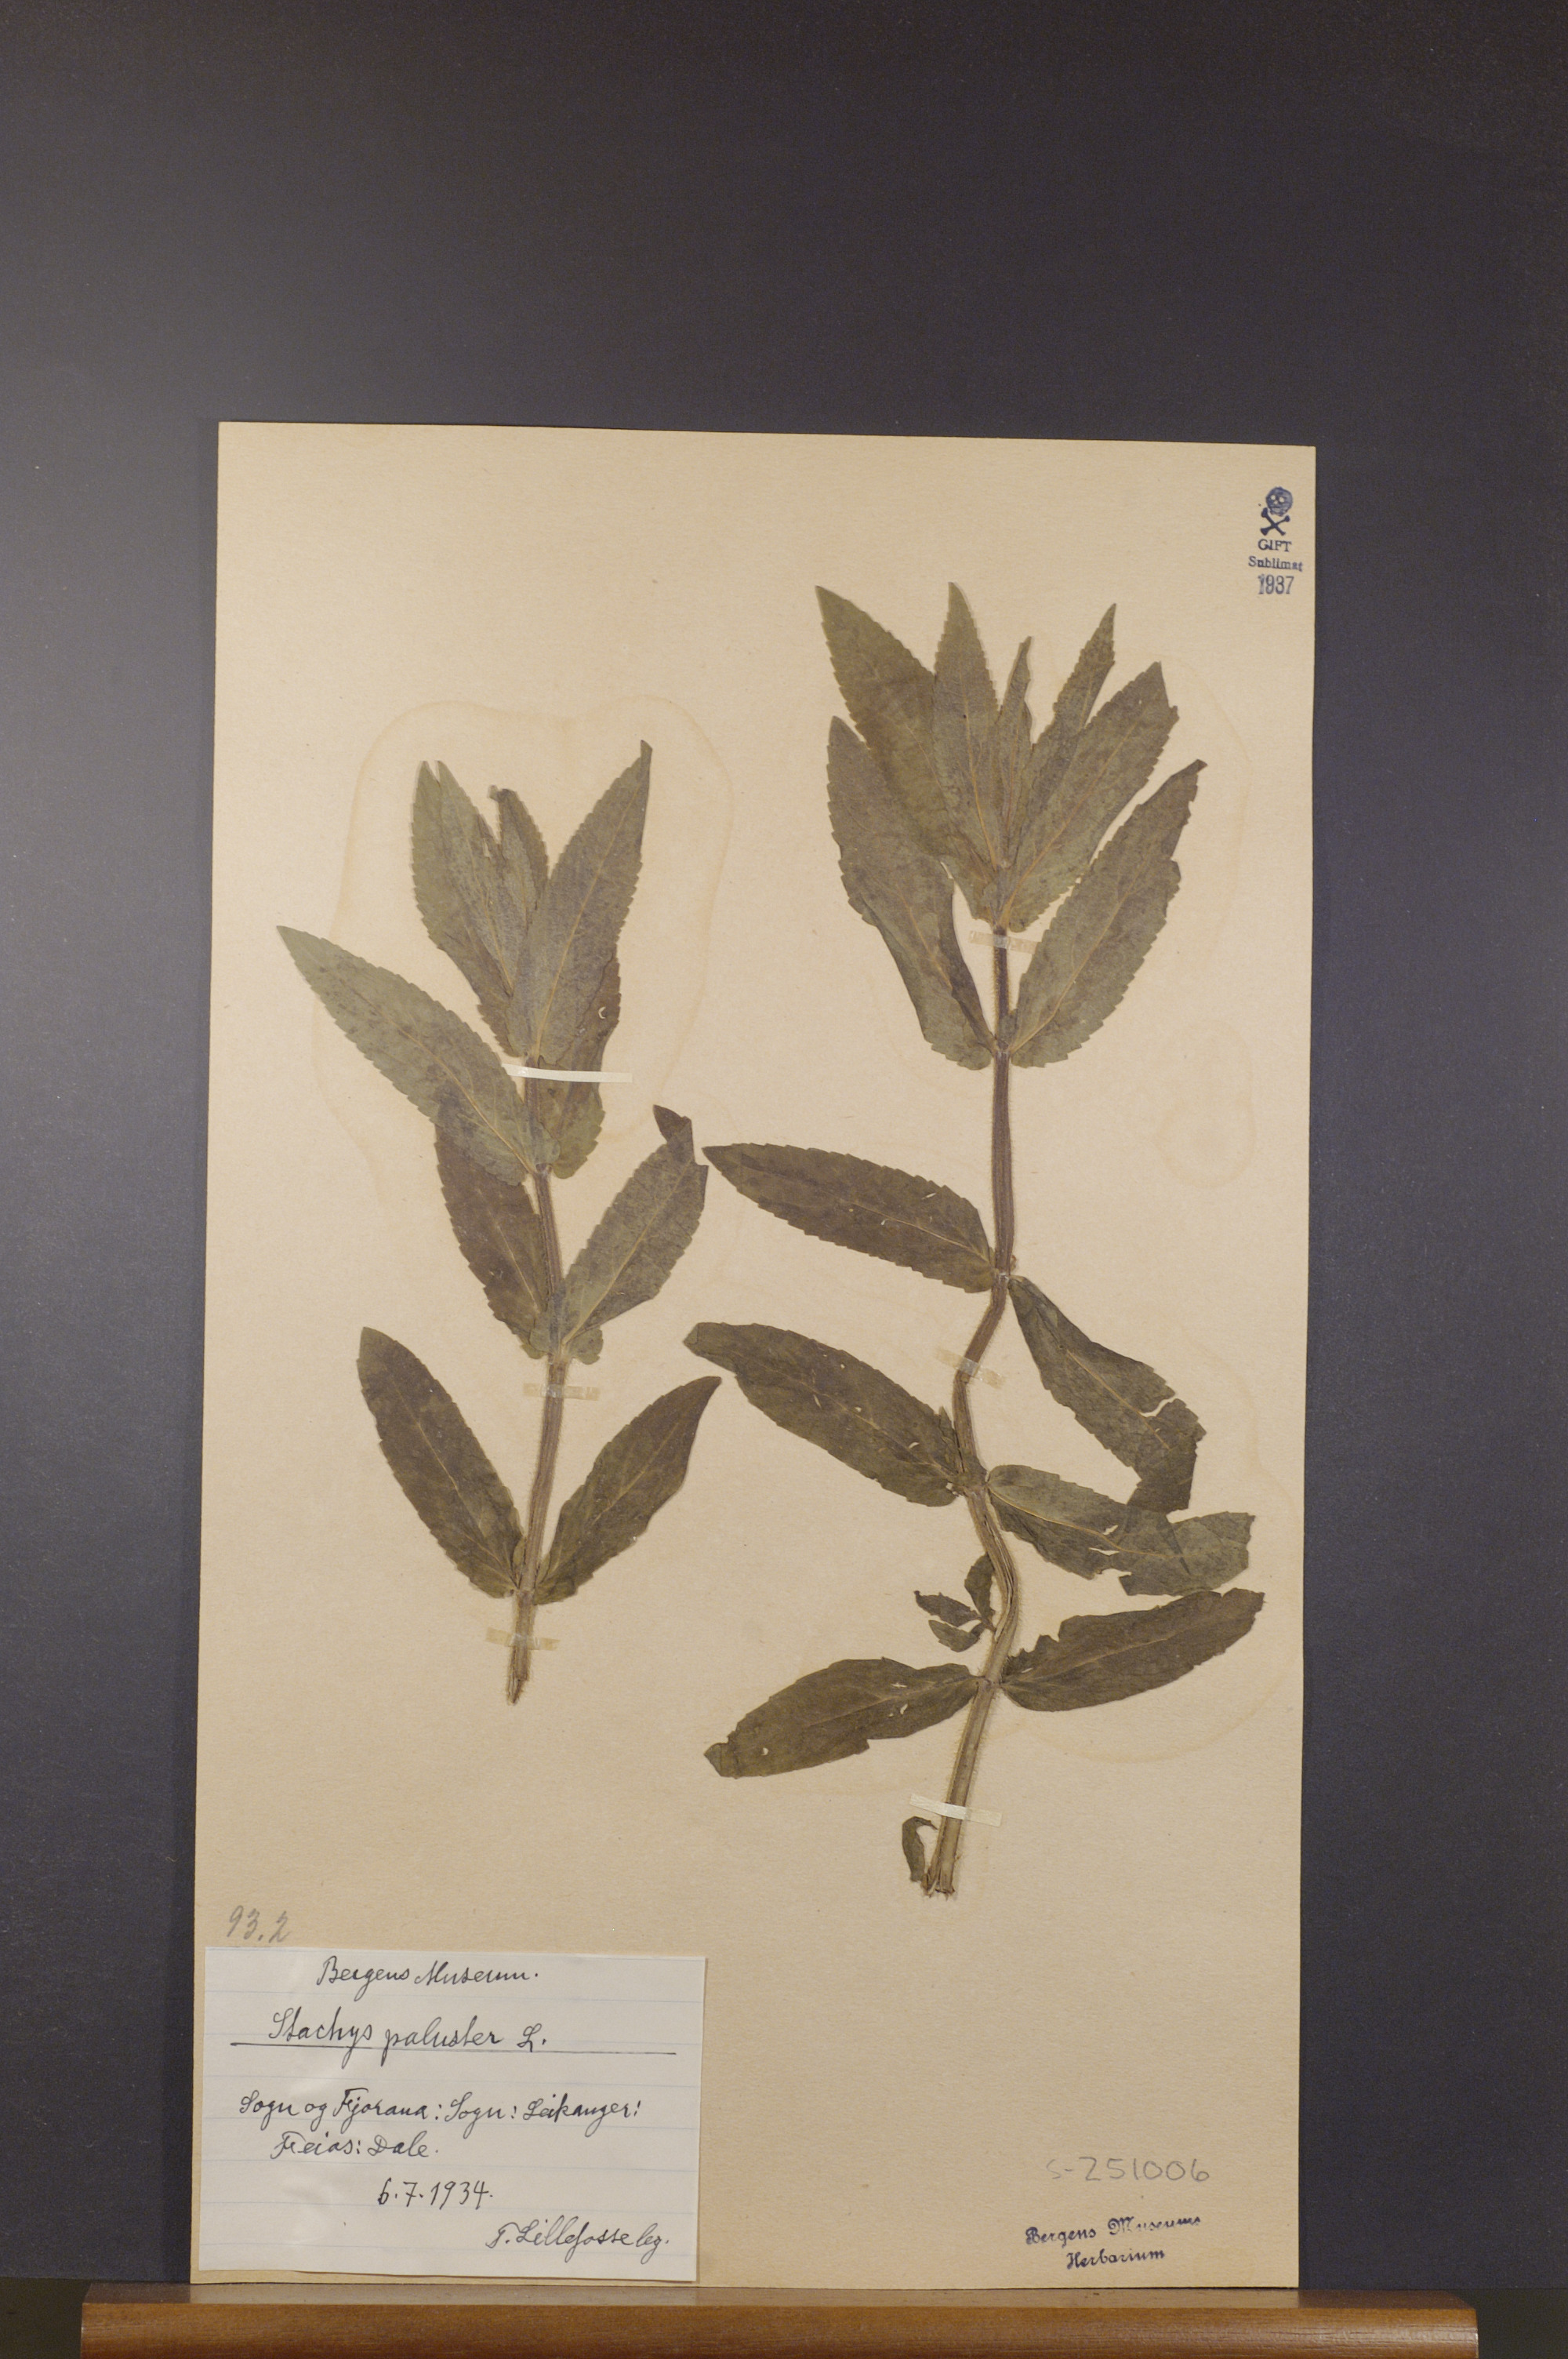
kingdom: Plantae
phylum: Tracheophyta
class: Magnoliopsida
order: Lamiales
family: Lamiaceae
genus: Stachys
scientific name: Stachys palustris
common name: Marsh woundwort
